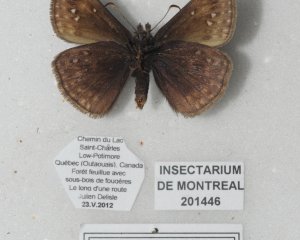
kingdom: Animalia
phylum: Arthropoda
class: Insecta
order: Lepidoptera
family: Hesperiidae
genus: Gesta
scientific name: Gesta
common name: Juvenal's Duskywing
